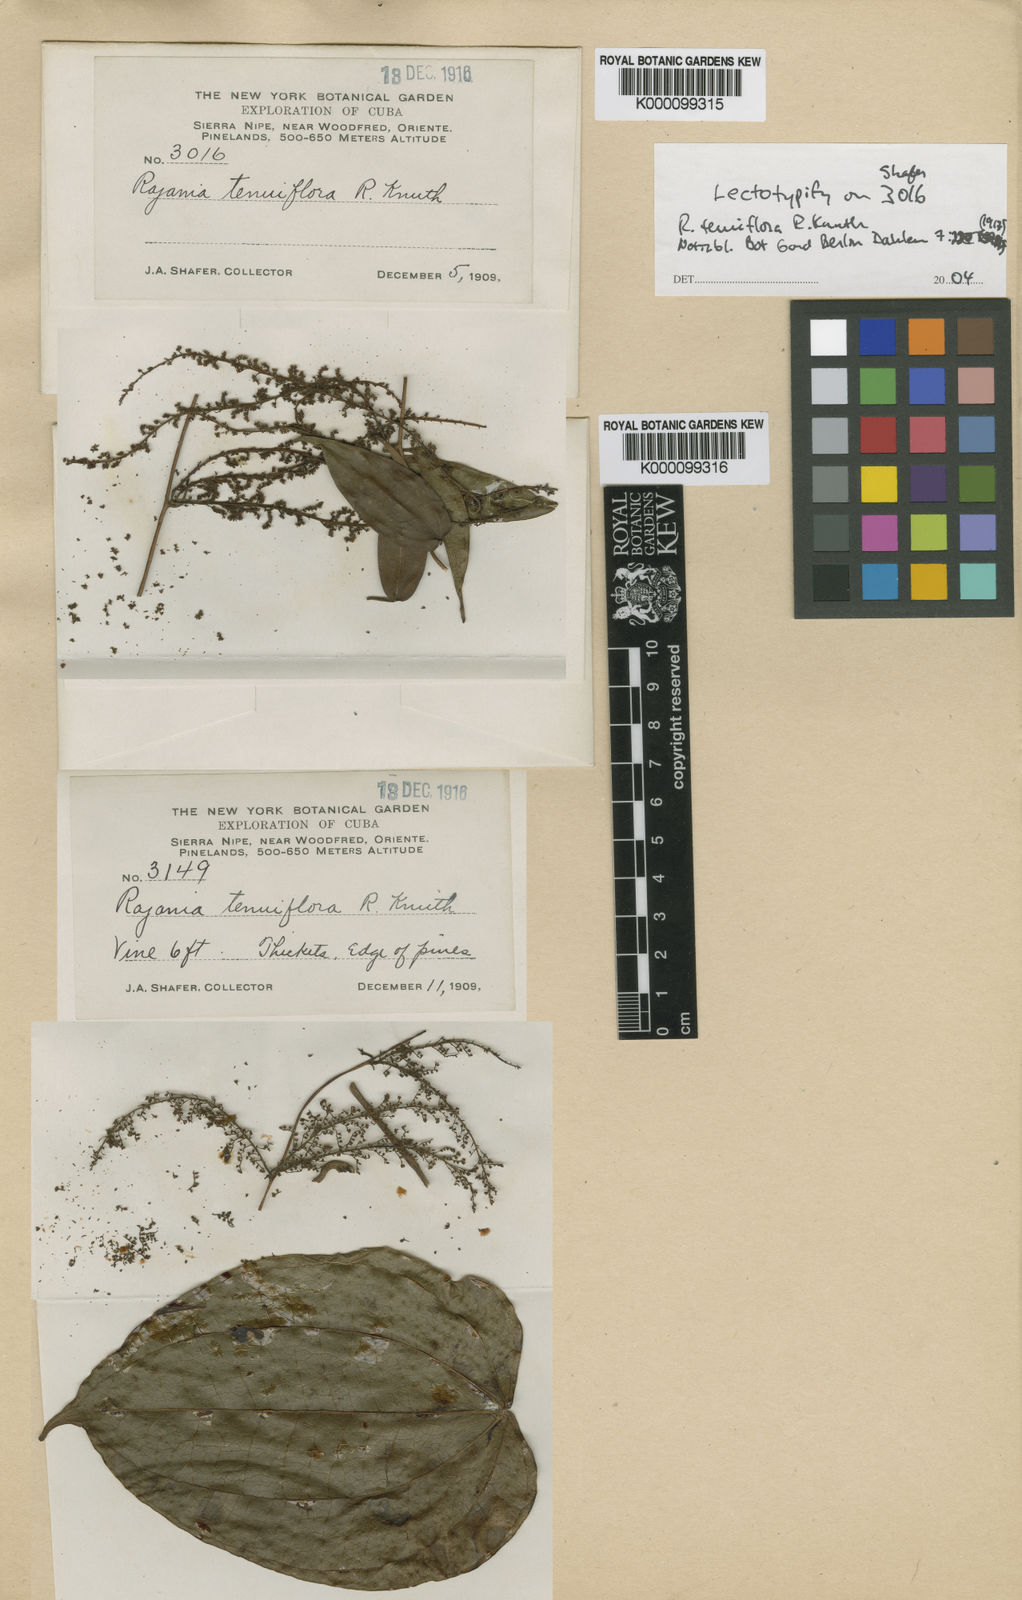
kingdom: Plantae
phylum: Tracheophyta
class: Liliopsida
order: Dioscoreales
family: Dioscoreaceae
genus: Dioscorea
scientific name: Dioscorea bulbifera
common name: Air yam
